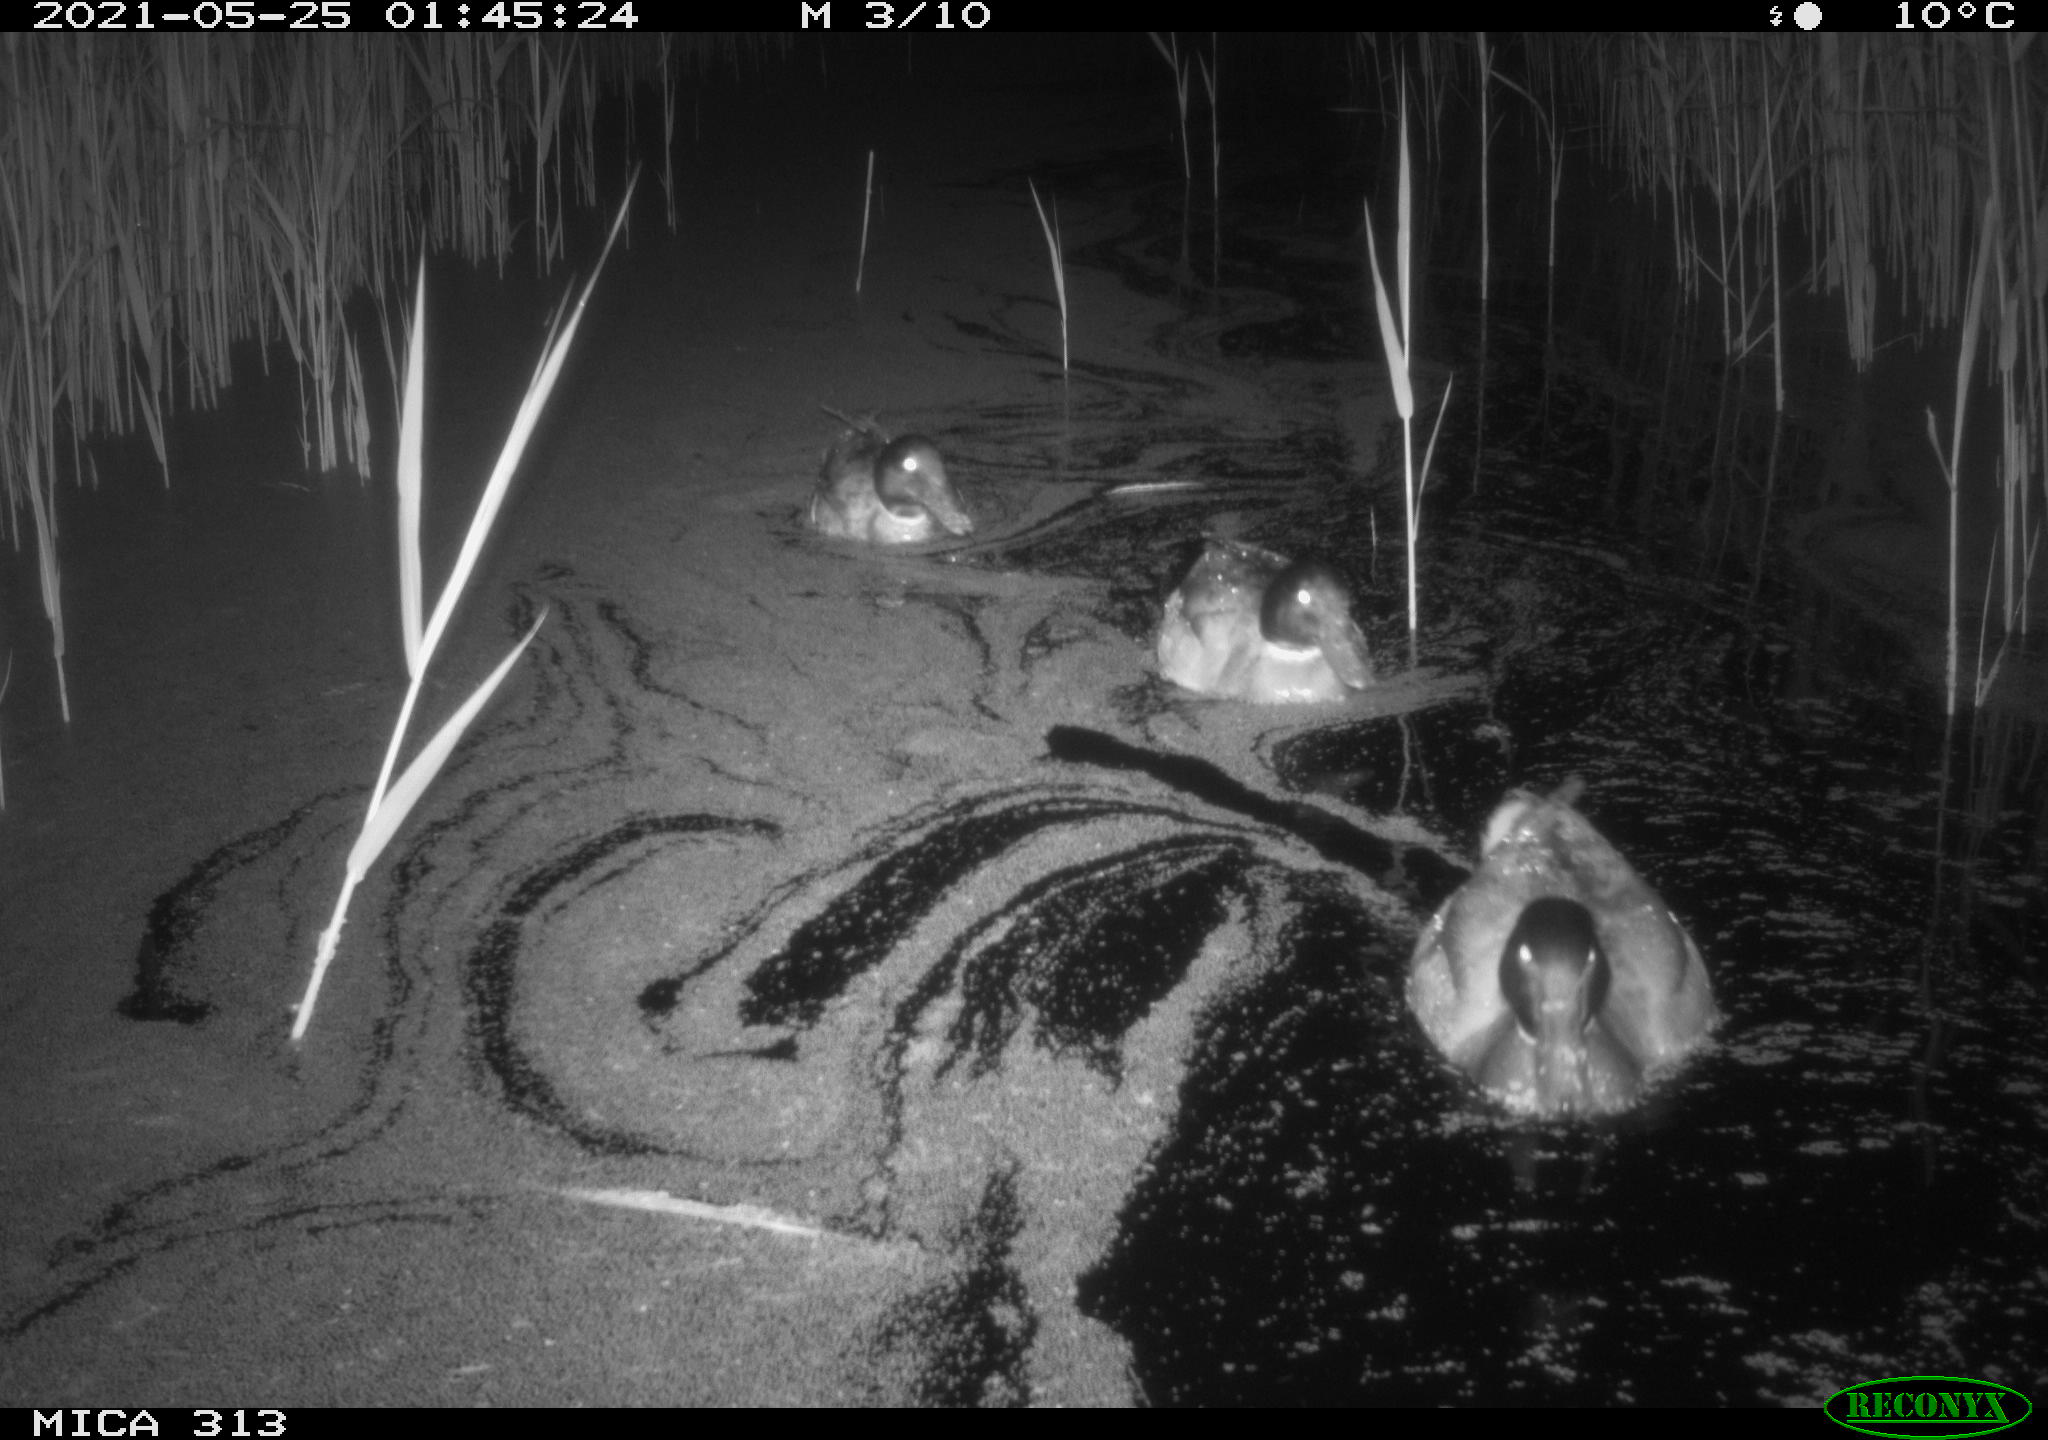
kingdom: Animalia
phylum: Chordata
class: Aves
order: Anseriformes
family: Anatidae
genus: Anas
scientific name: Anas platyrhynchos
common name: Mallard
